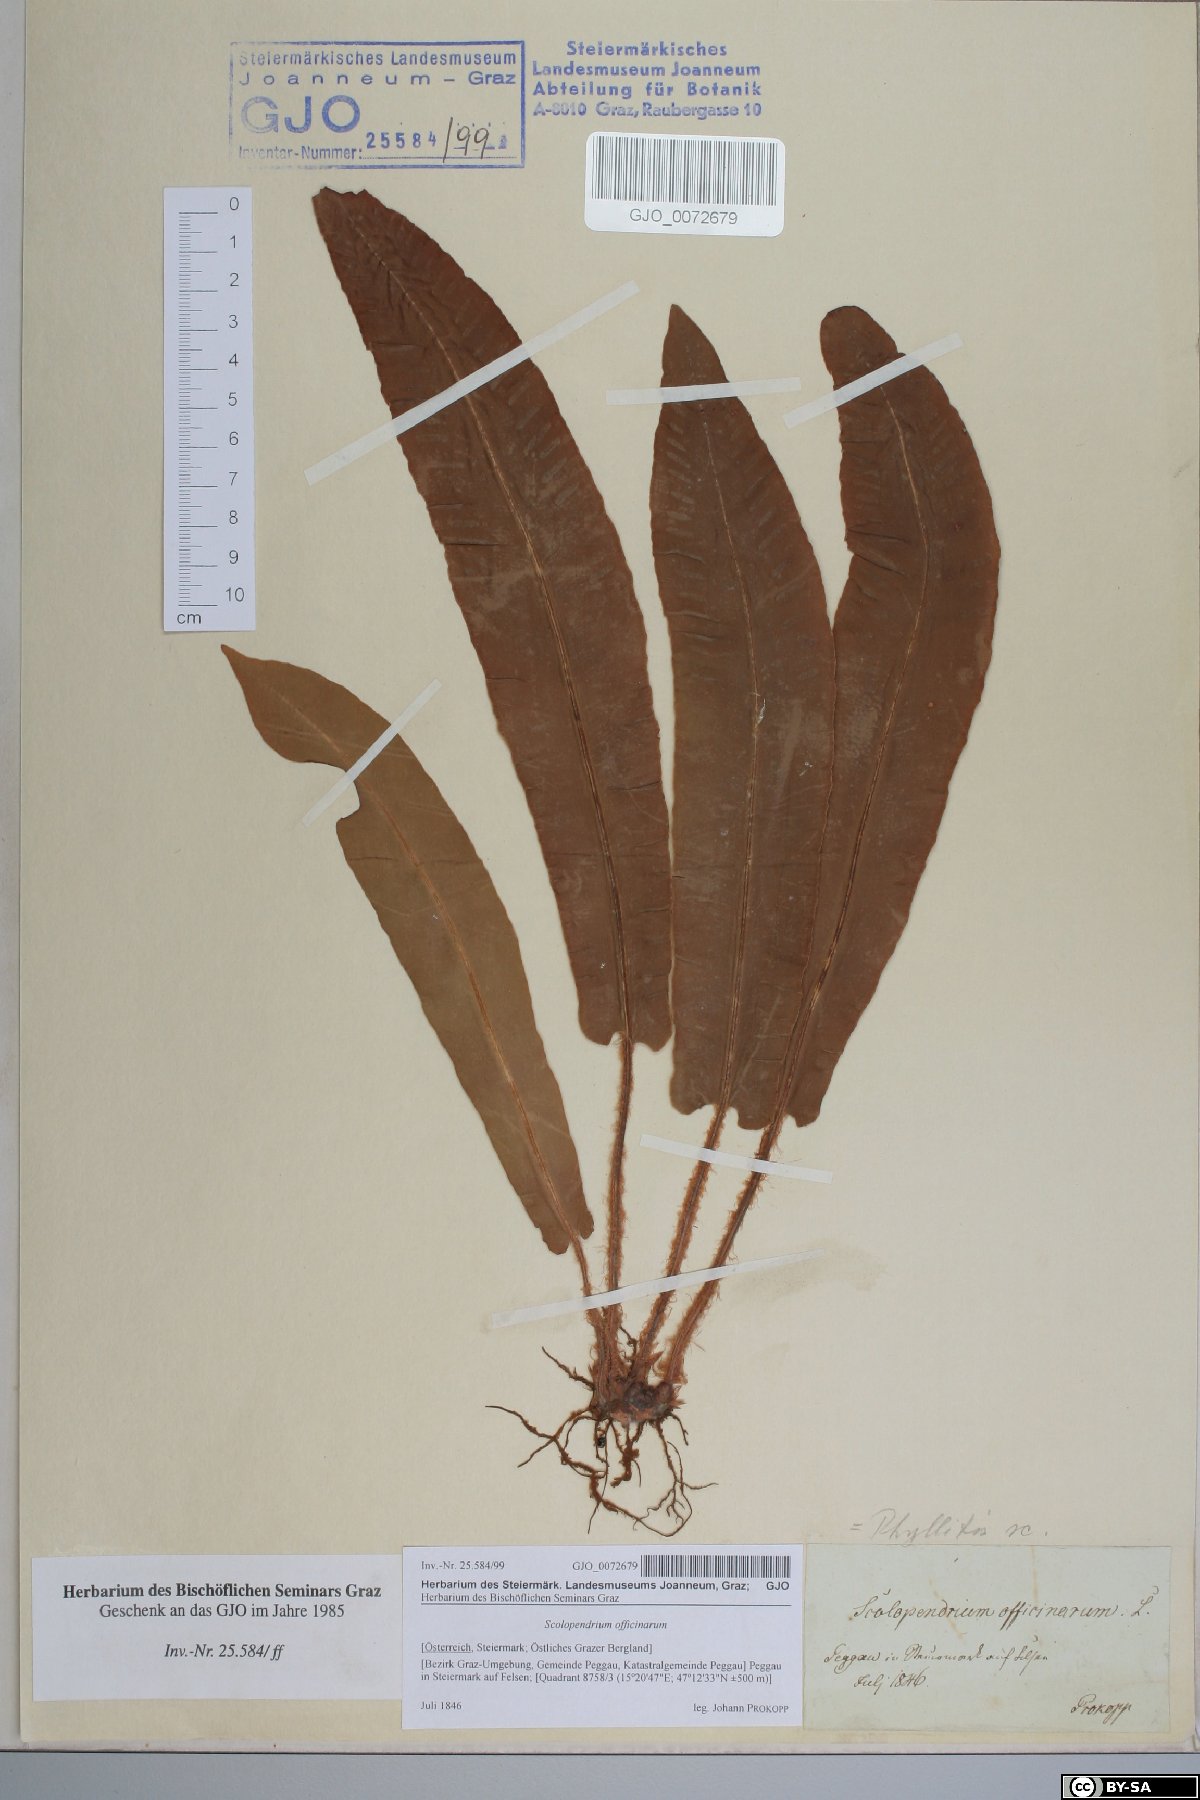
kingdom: Plantae
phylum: Tracheophyta
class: Polypodiopsida
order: Polypodiales
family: Aspleniaceae
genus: Asplenium
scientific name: Asplenium scolopendrium
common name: Hart's-tongue fern
